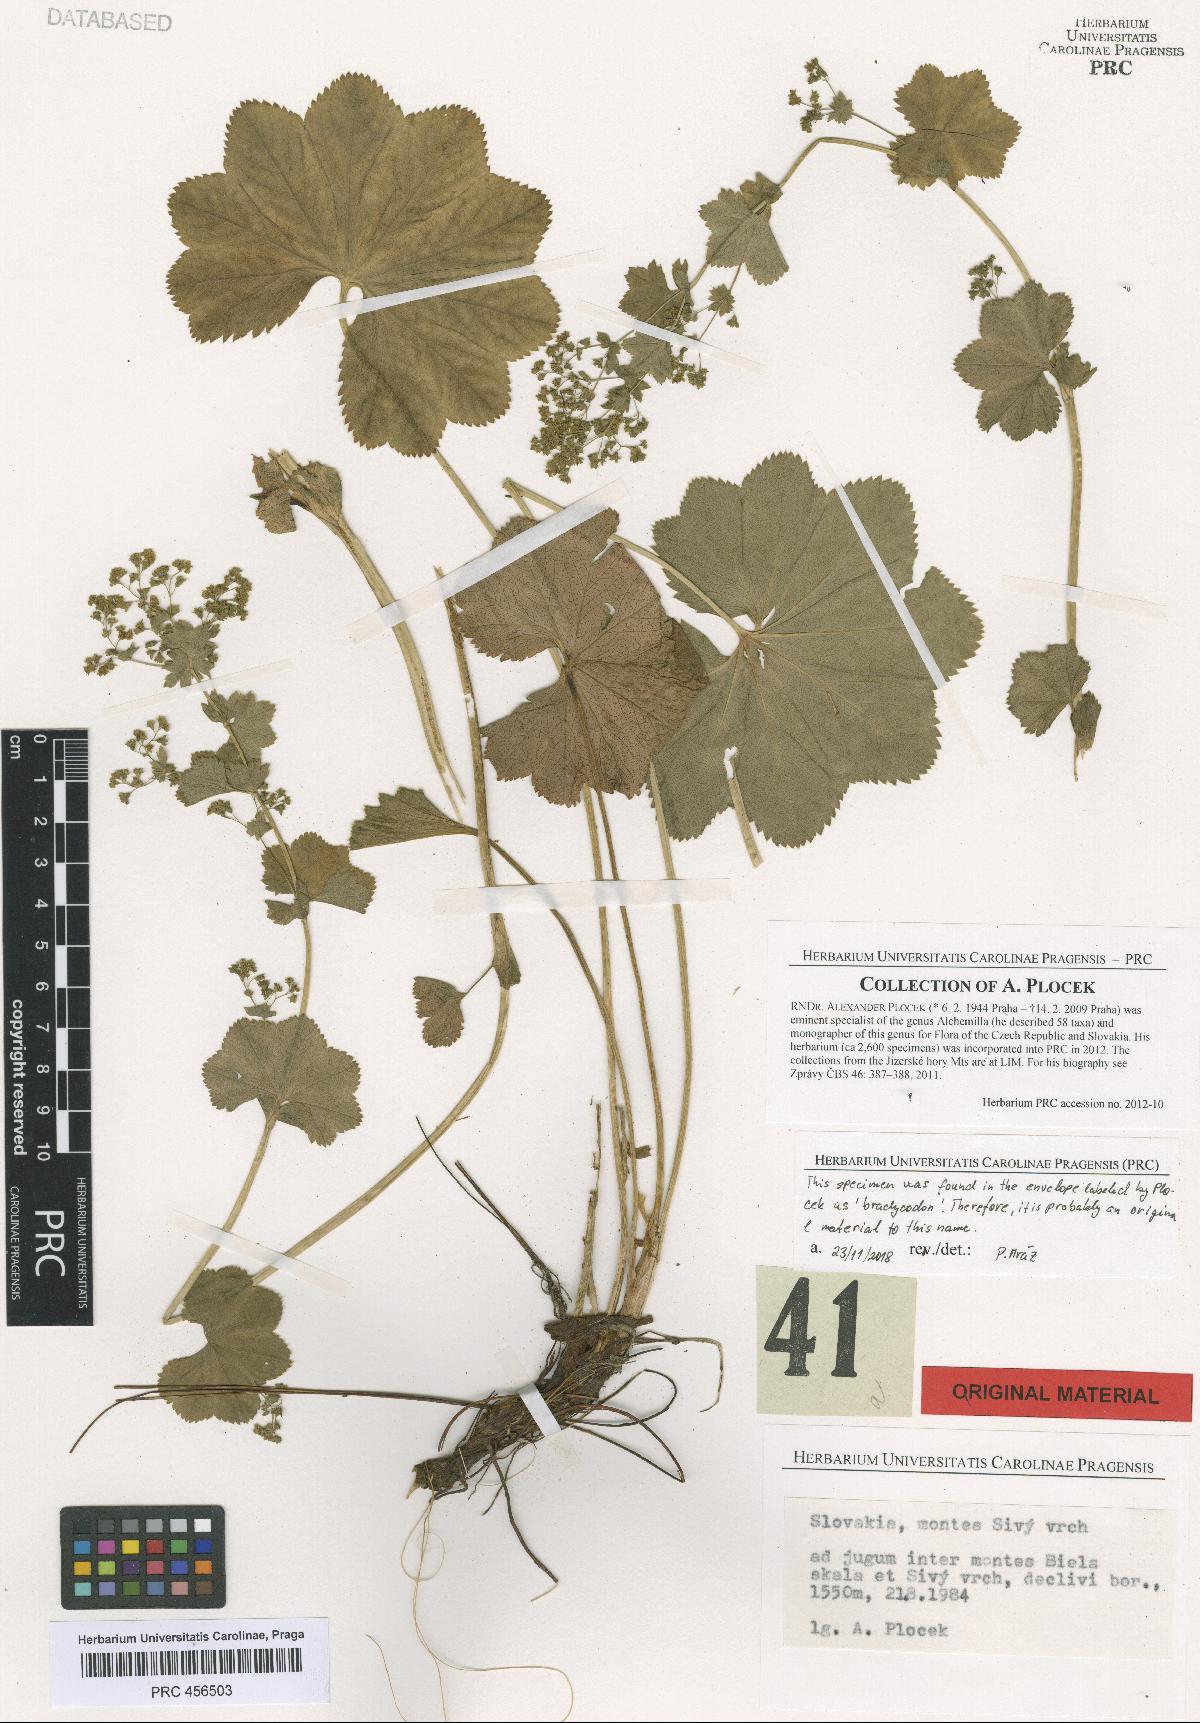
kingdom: Plantae
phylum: Tracheophyta
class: Magnoliopsida
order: Rosales
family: Rosaceae
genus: Alchemilla
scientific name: Alchemilla brachycodon
